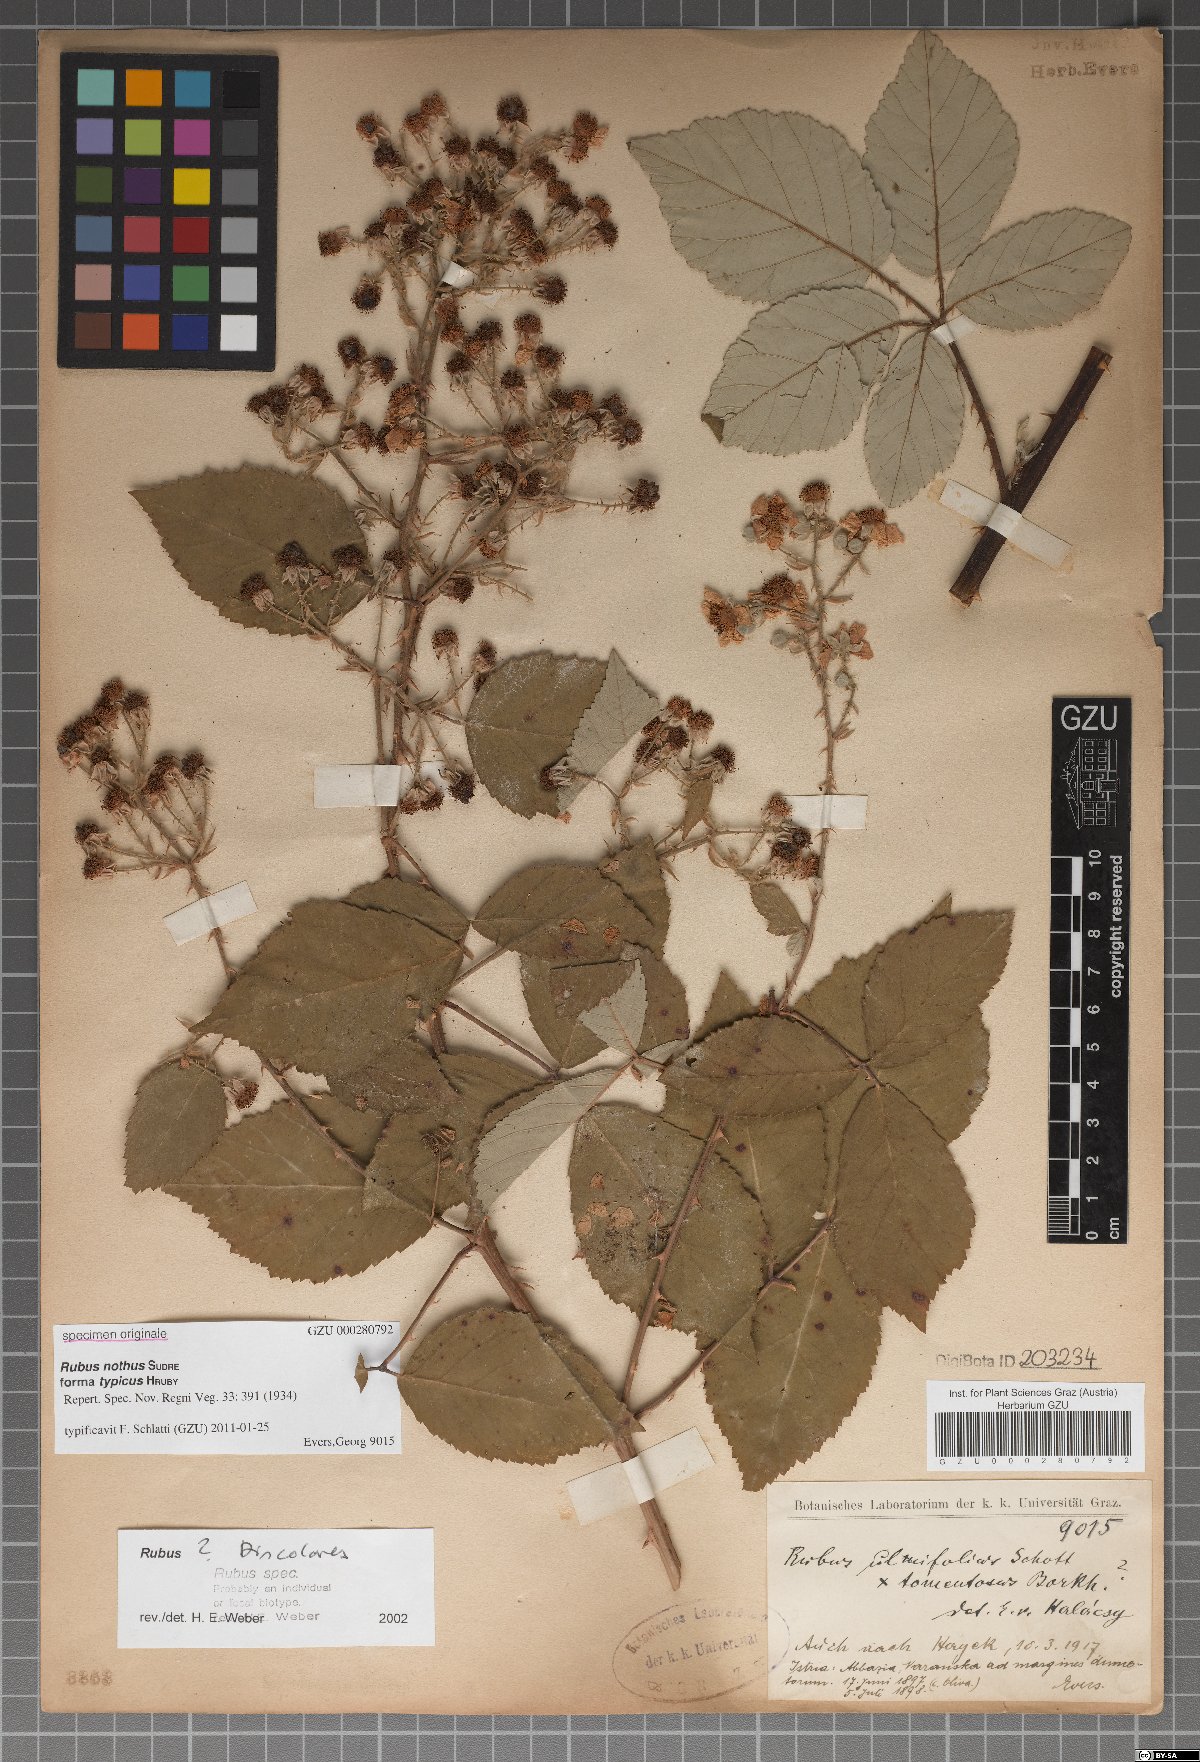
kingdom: Plantae
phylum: Tracheophyta
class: Magnoliopsida
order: Rosales
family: Rosaceae
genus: Rubus
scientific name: Rubus nothus
